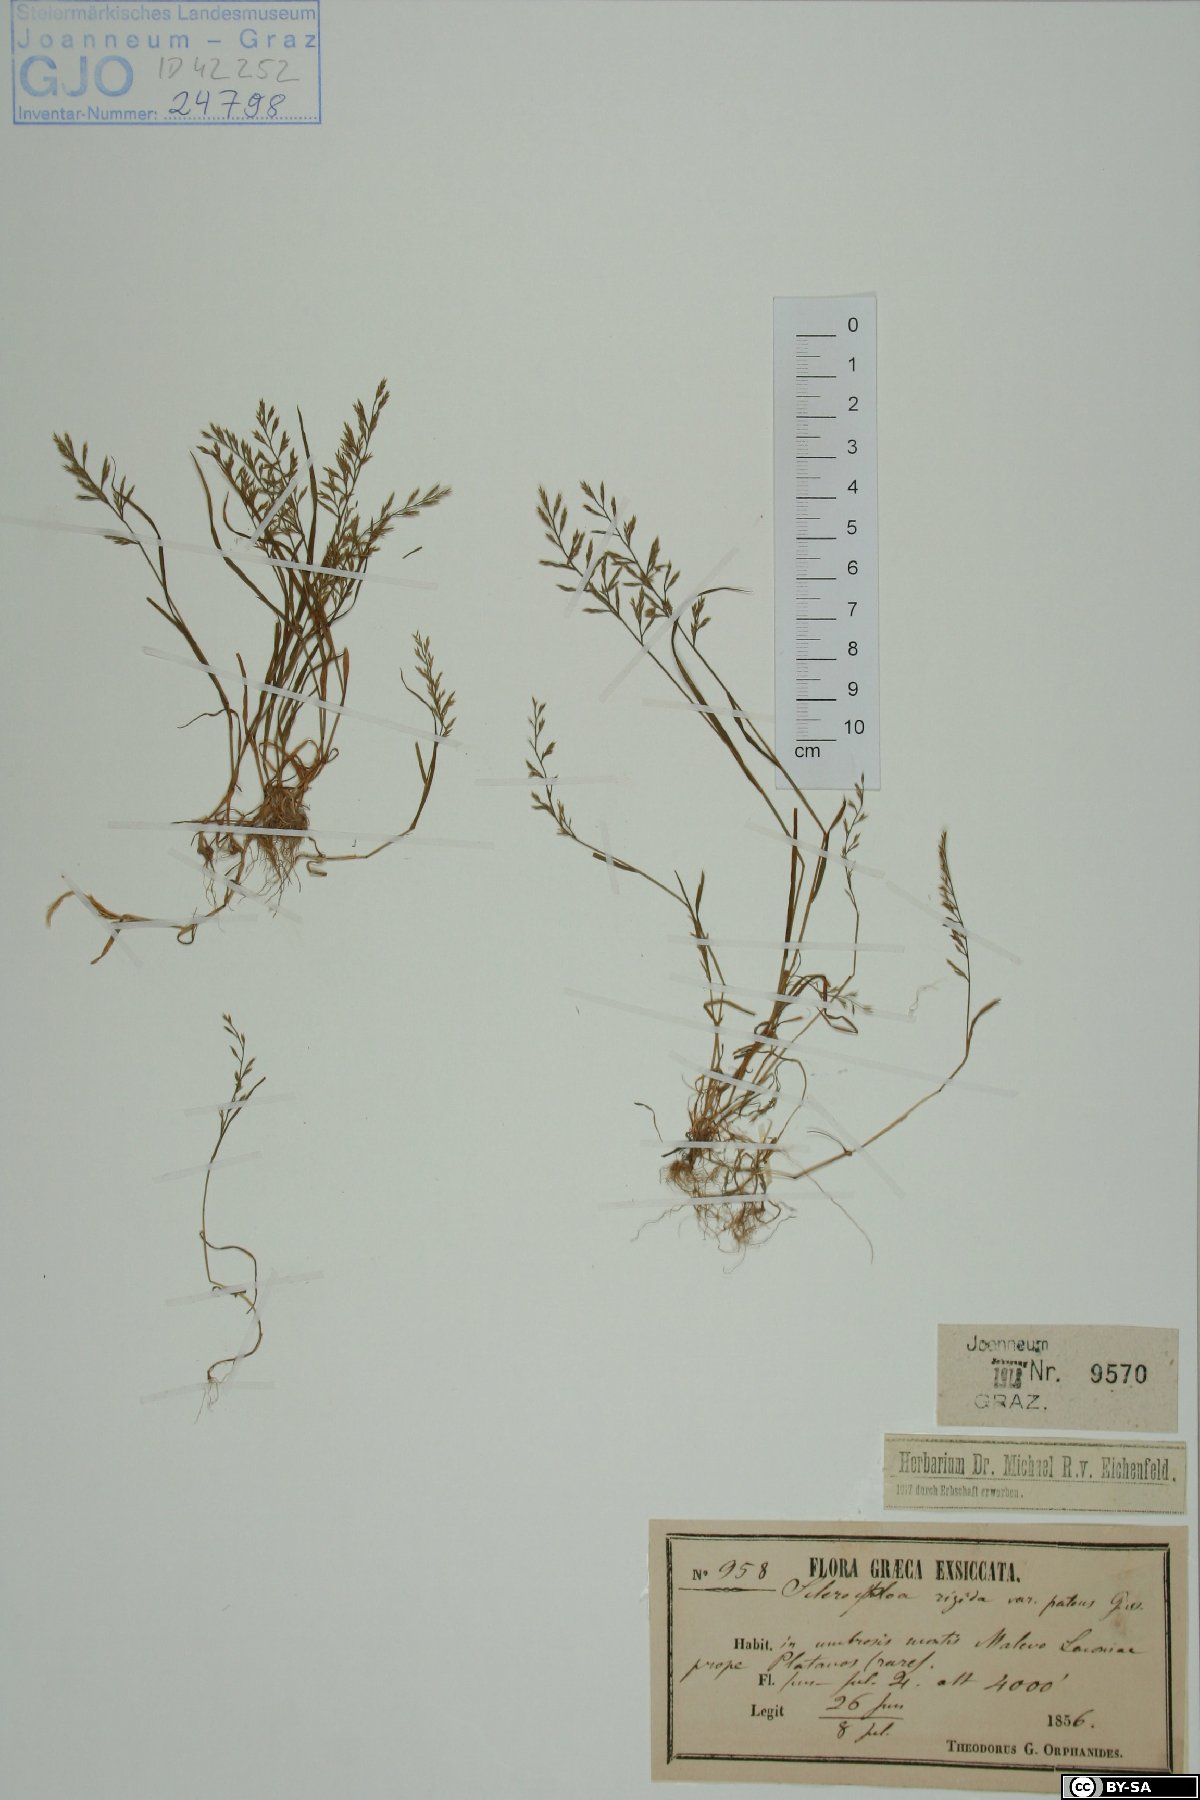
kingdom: Plantae
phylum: Tracheophyta
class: Liliopsida
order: Poales
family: Poaceae
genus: Catapodium
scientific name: Catapodium rigidum
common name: Fern-grass
